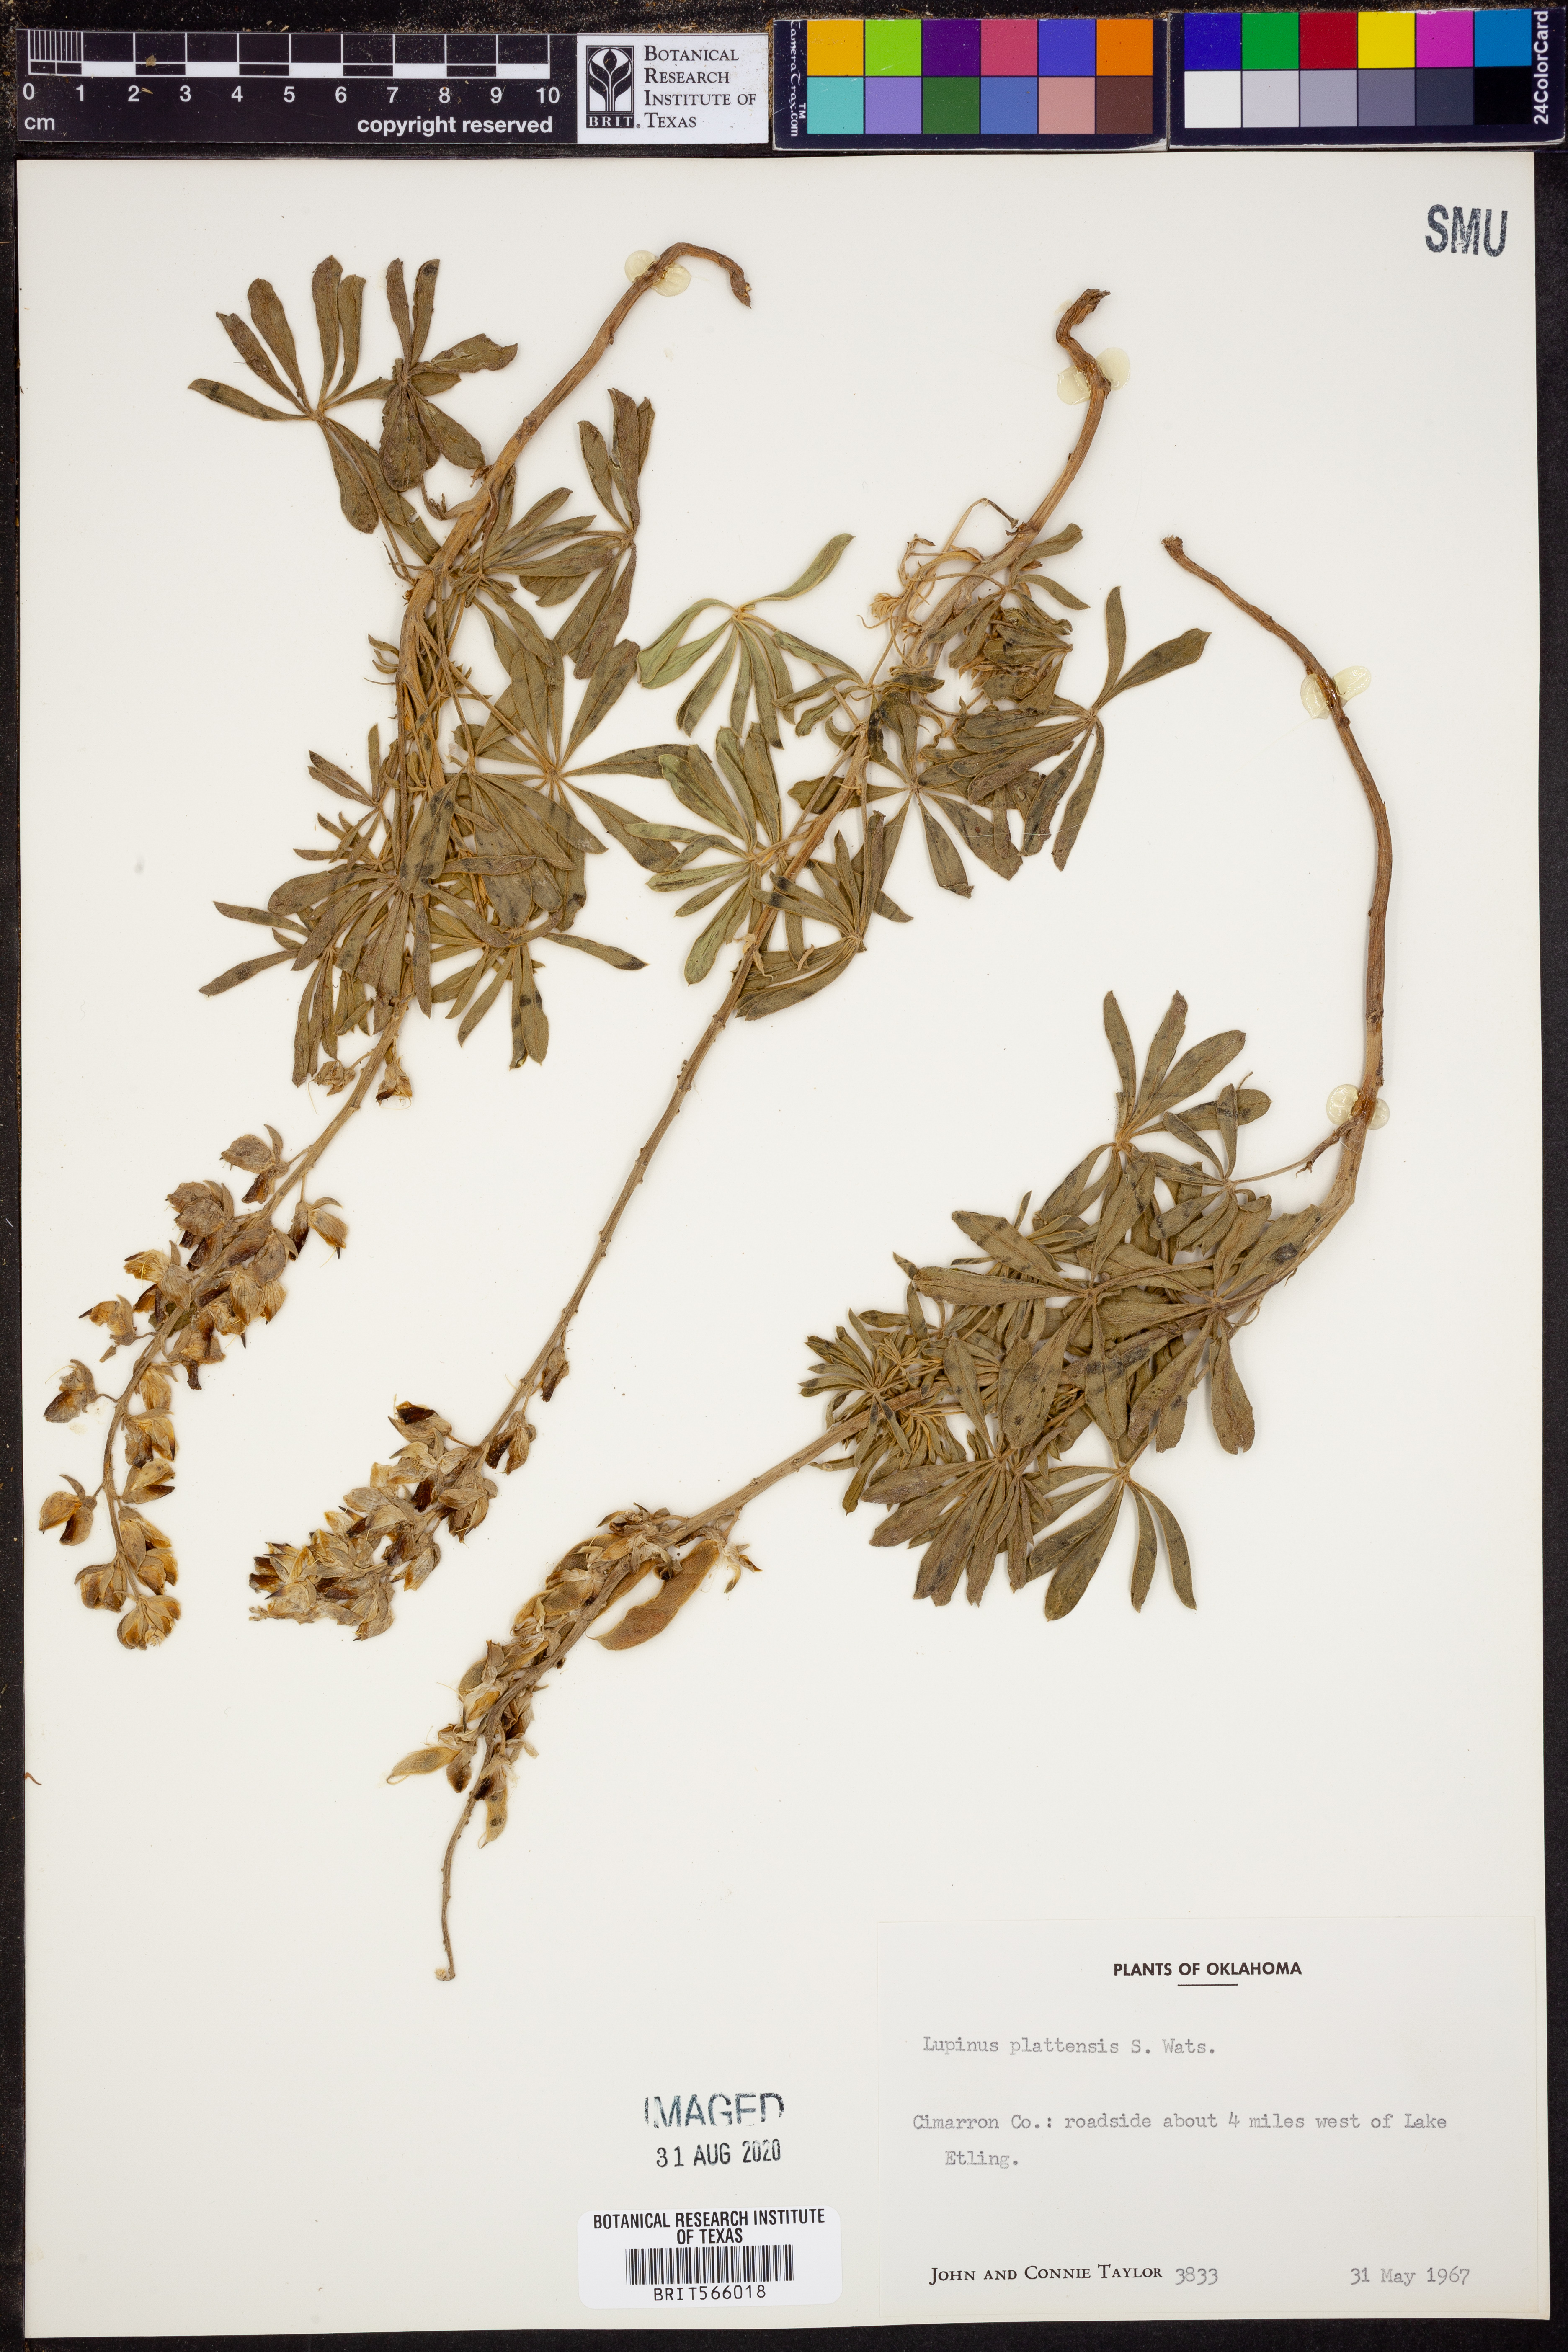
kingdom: Plantae
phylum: Tracheophyta
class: Magnoliopsida
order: Fabales
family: Fabaceae
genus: Lupinus
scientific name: Lupinus plattensis
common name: Platte lupine
